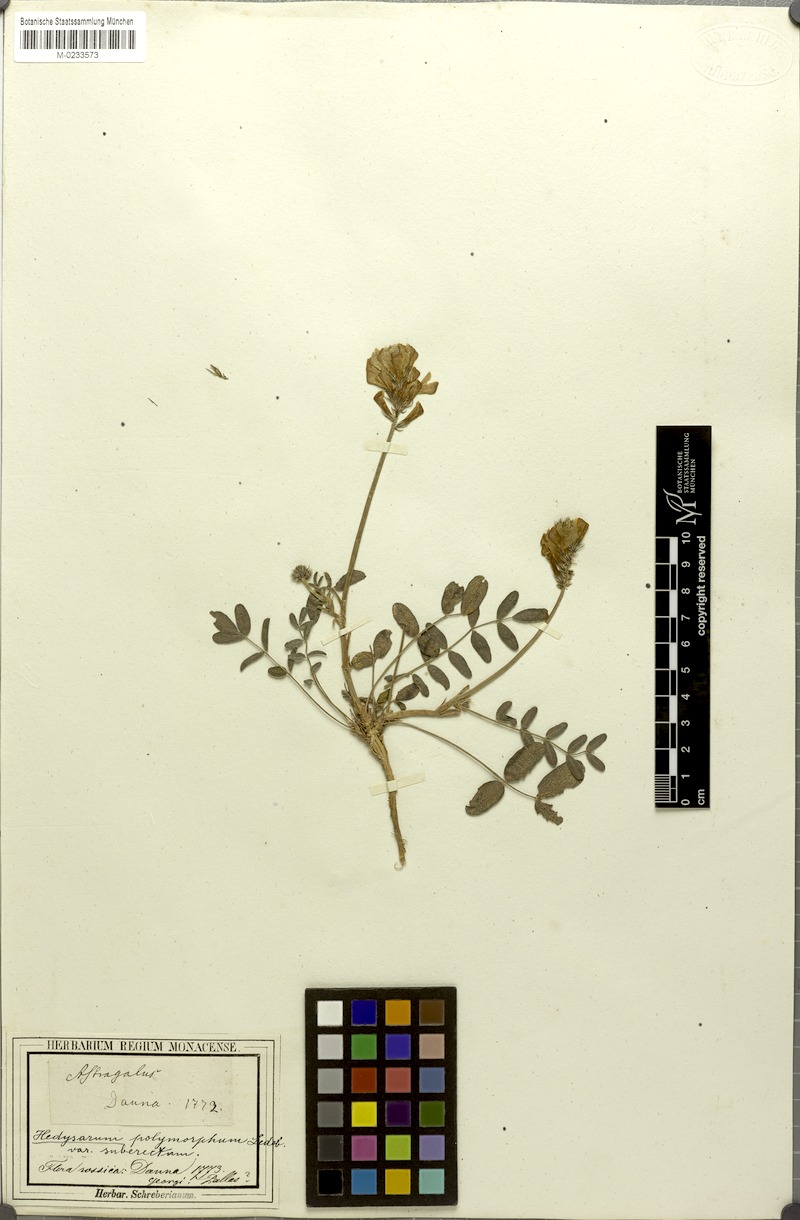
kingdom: Plantae
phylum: Tracheophyta
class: Magnoliopsida
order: Fabales
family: Fabaceae
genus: Hedysarum
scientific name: Hedysarum gmelinii
